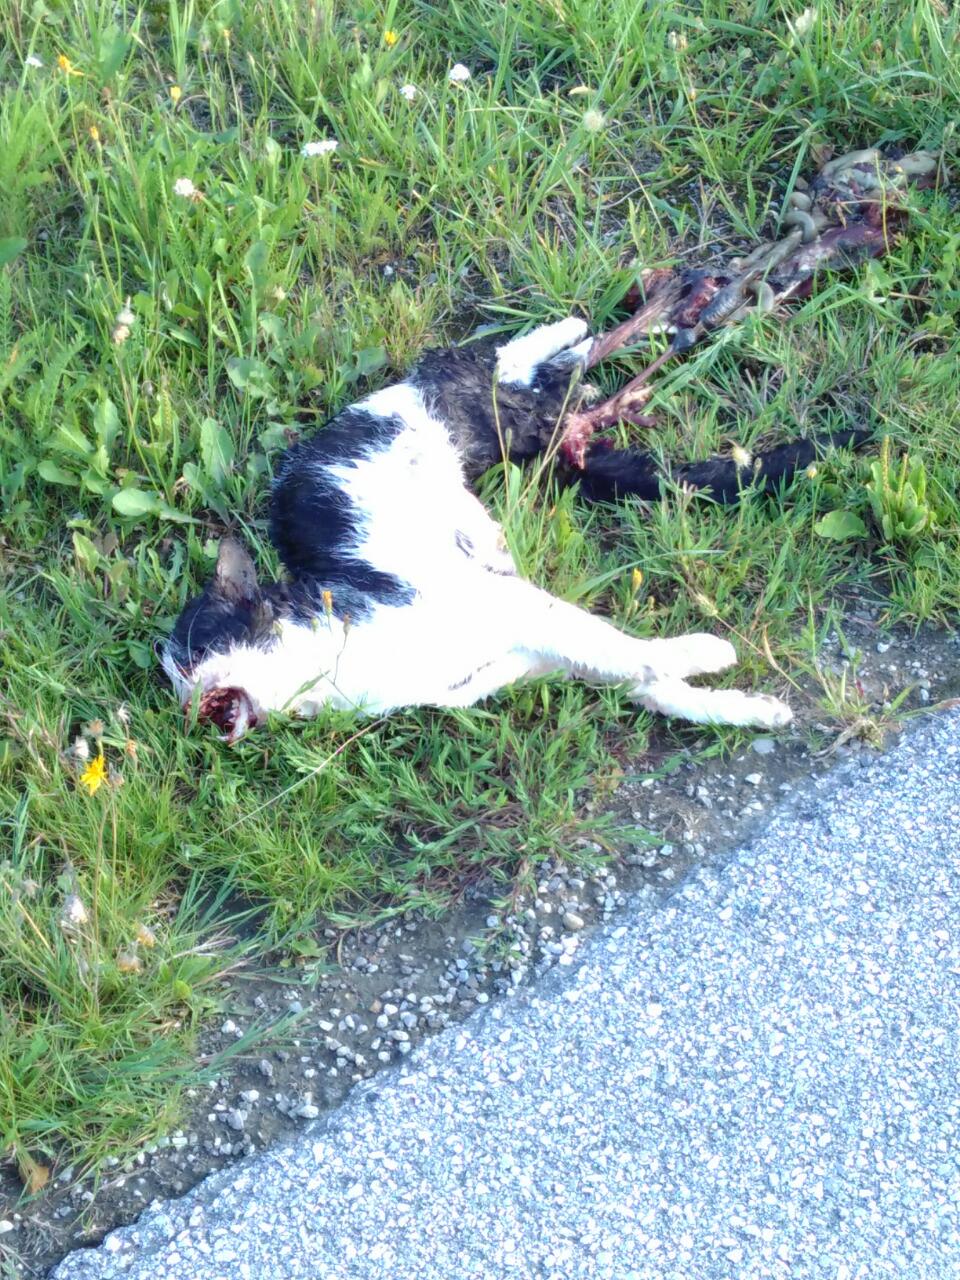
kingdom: Animalia
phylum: Chordata
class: Mammalia
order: Carnivora
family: Felidae
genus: Felis
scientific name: Felis catus
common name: Domestic cat
